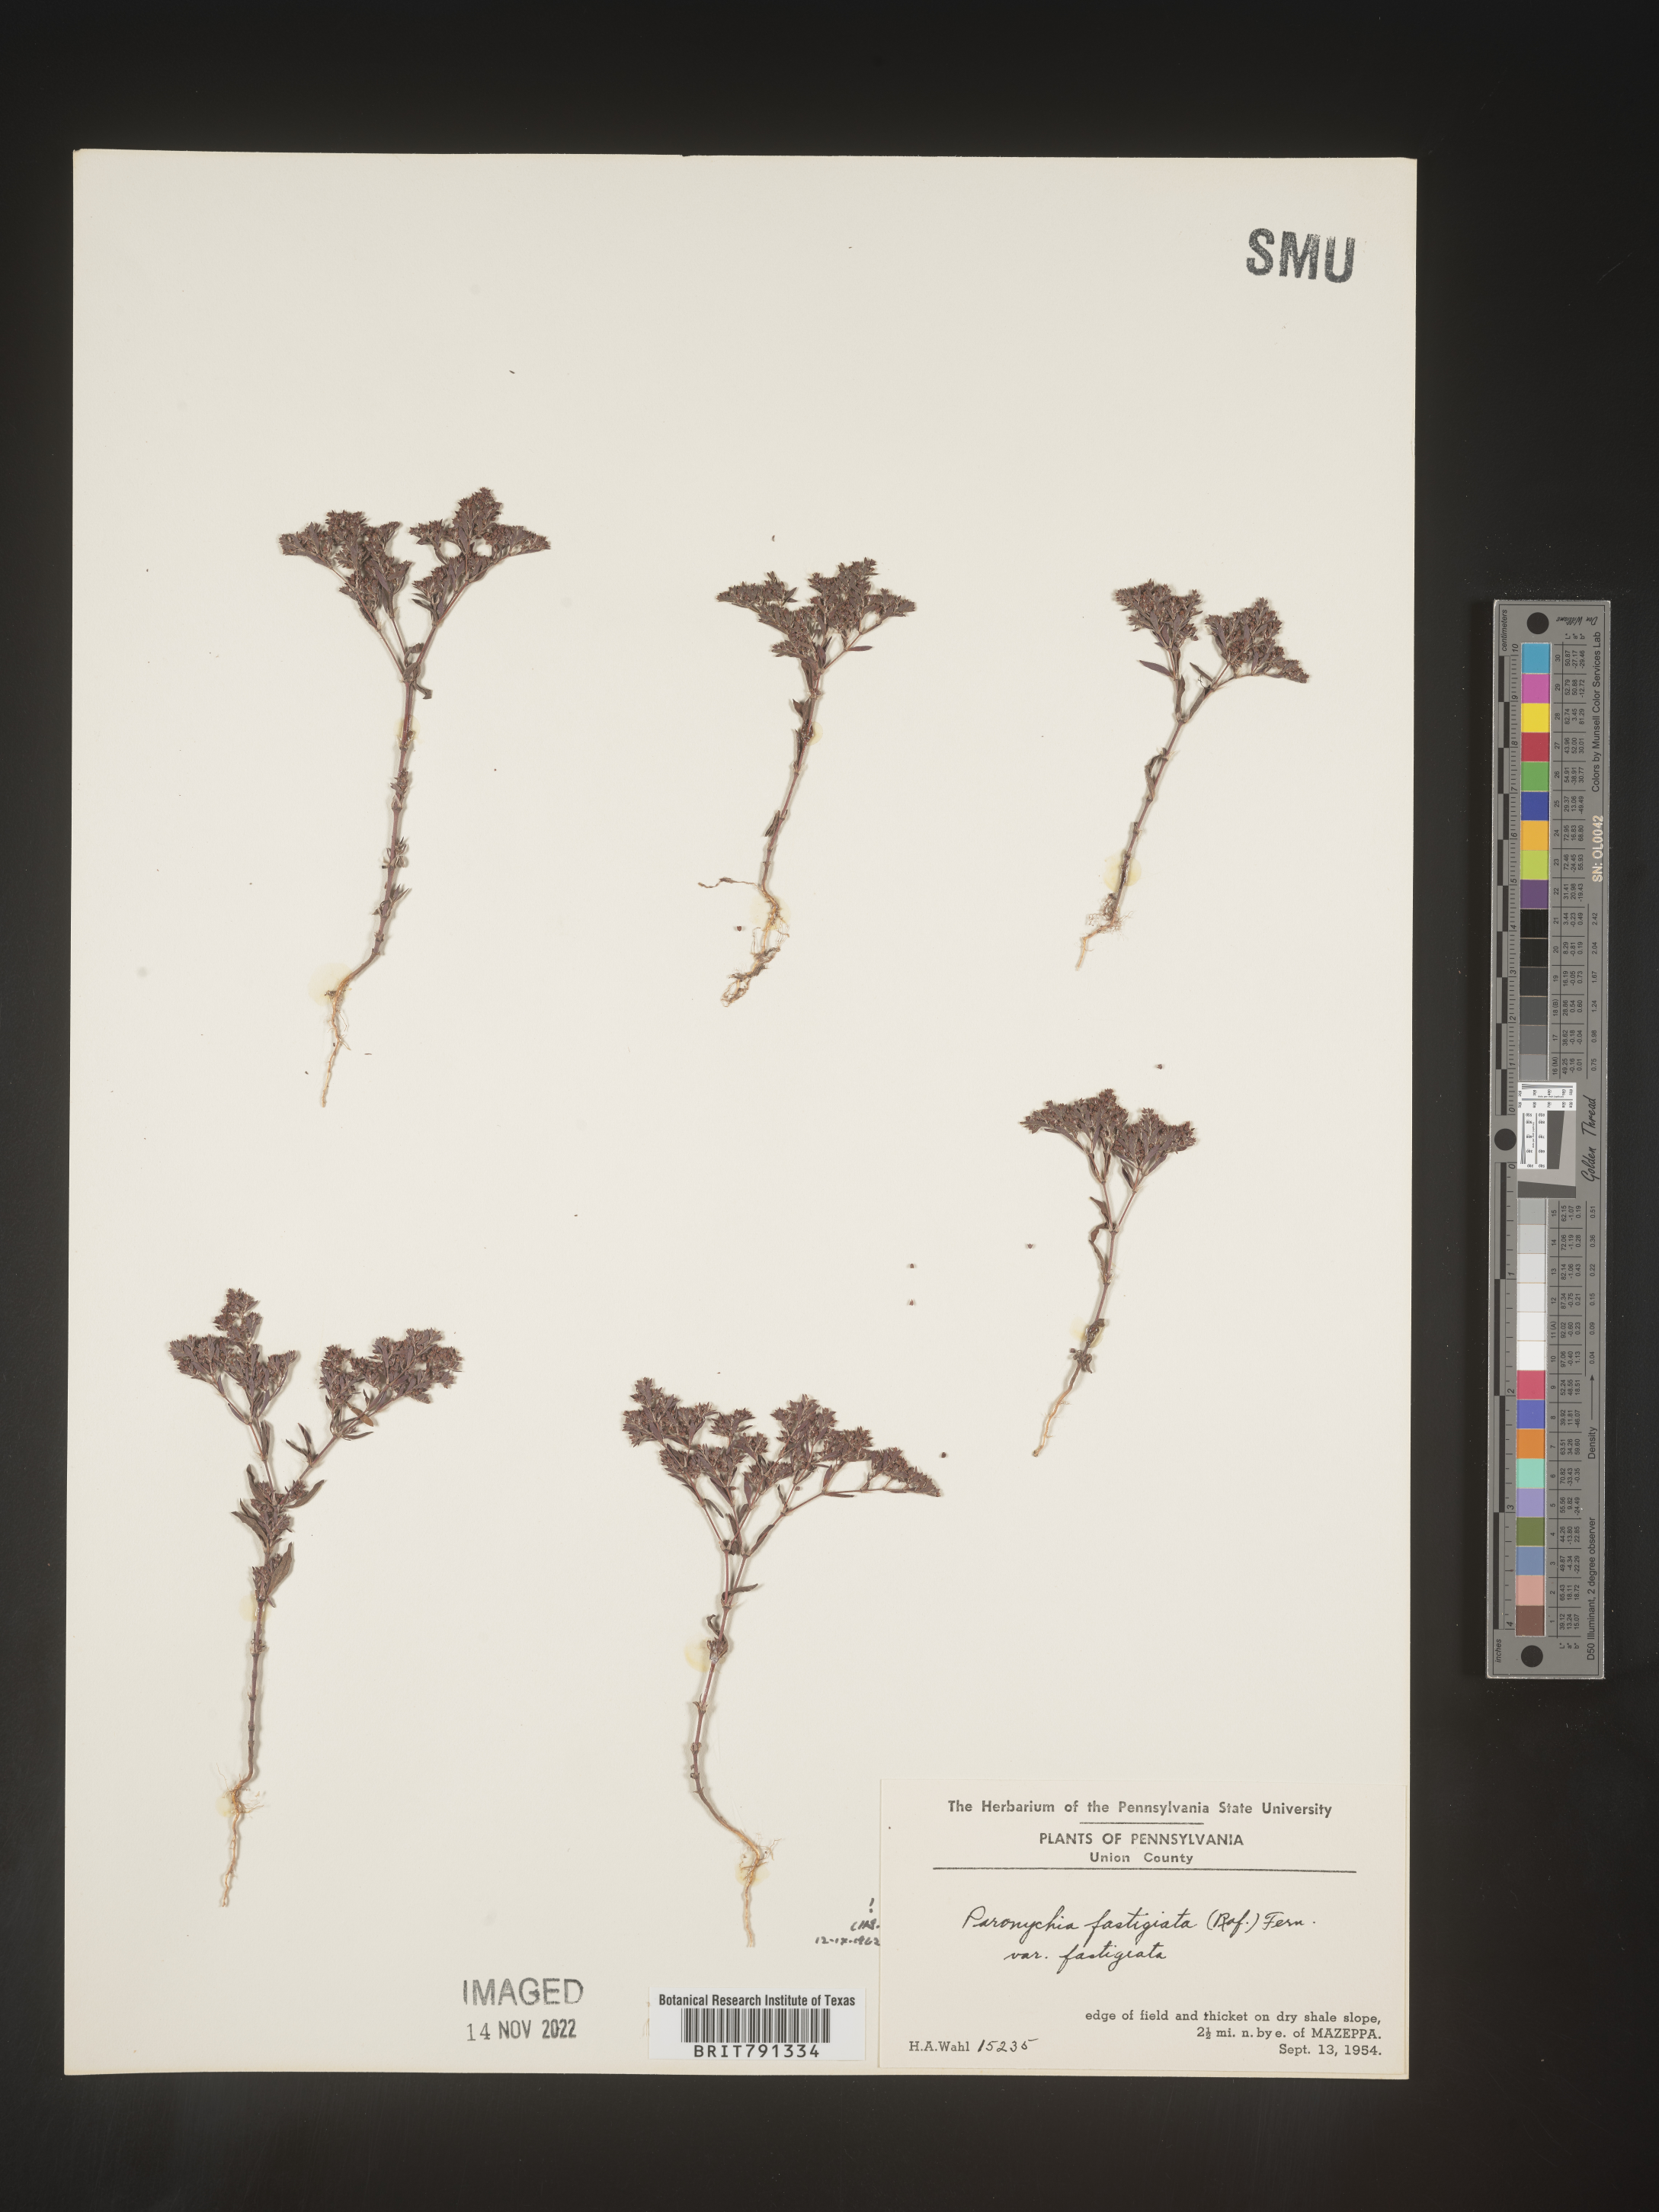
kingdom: Plantae
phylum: Tracheophyta
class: Magnoliopsida
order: Caryophyllales
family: Caryophyllaceae
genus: Paronychia
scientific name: Paronychia fastigiata
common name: Branching forked whitlow-wort
